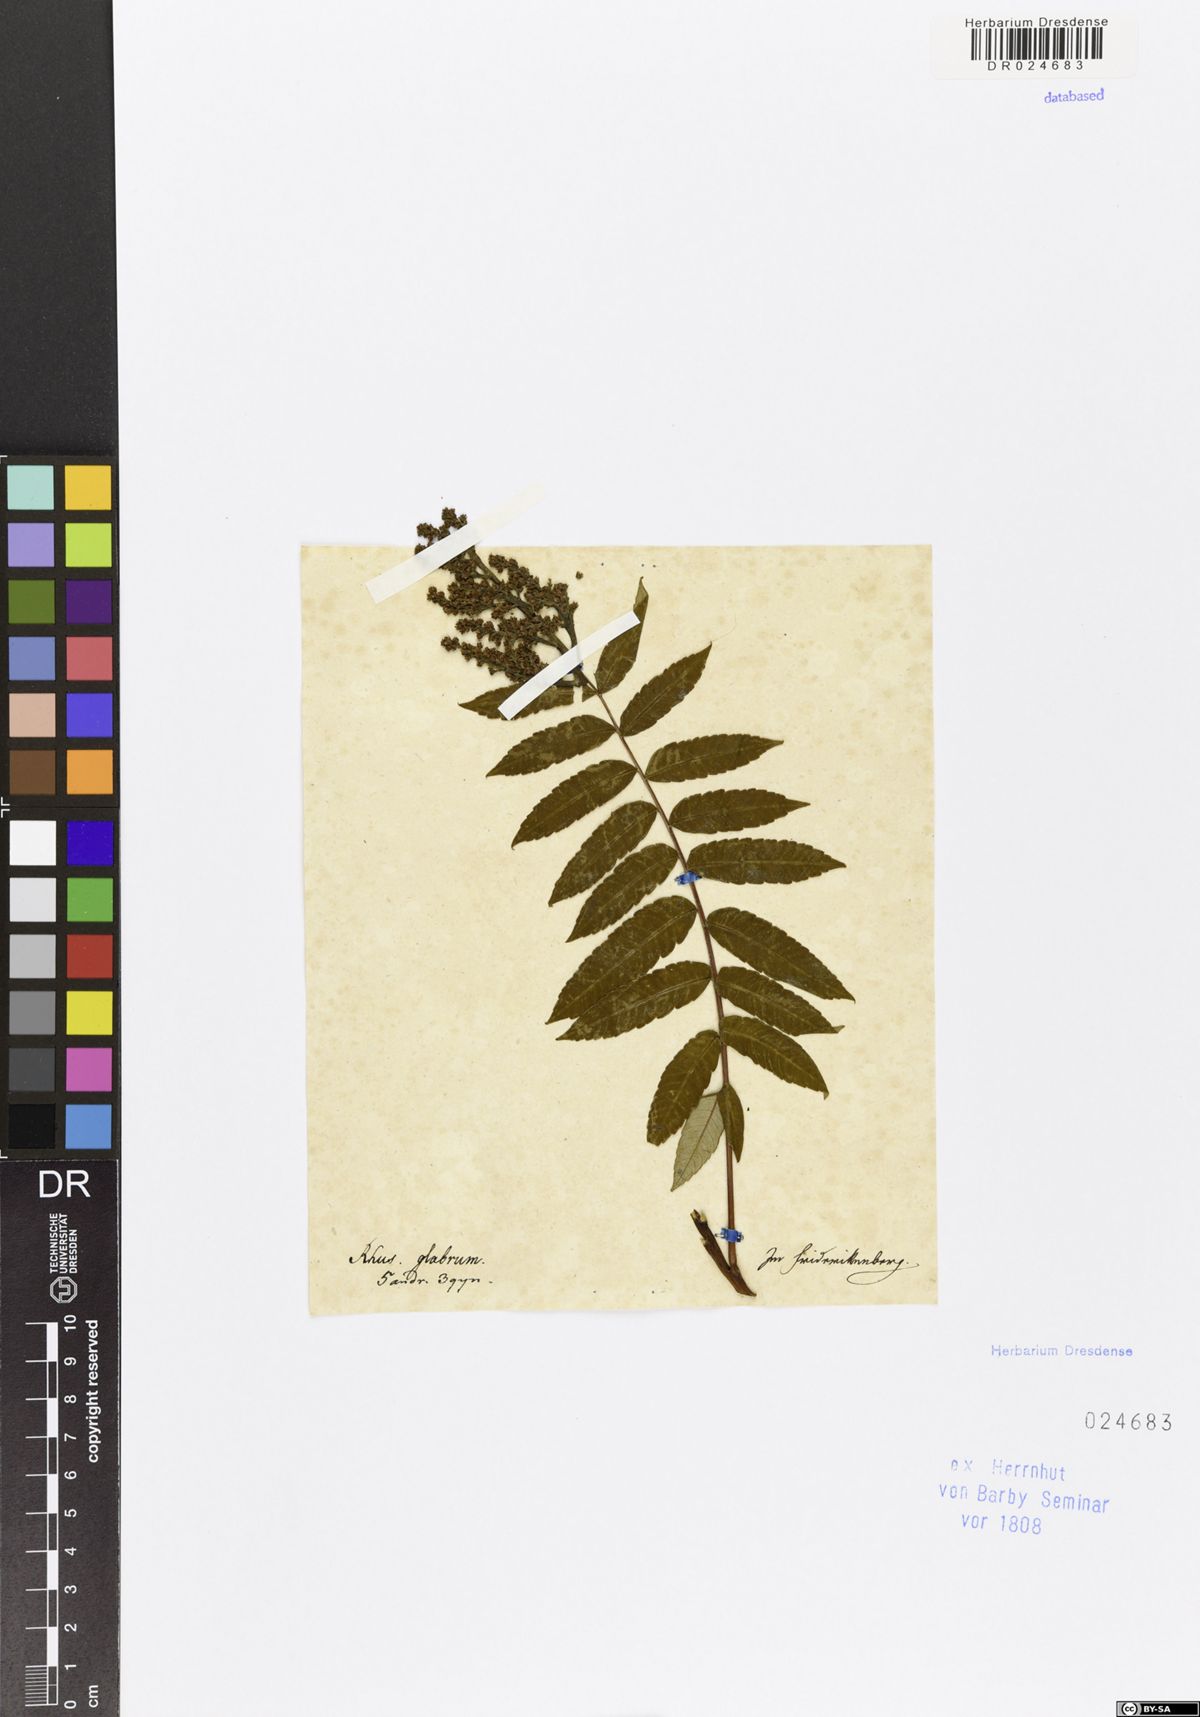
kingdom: Plantae
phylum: Tracheophyta
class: Magnoliopsida
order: Sapindales
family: Anacardiaceae
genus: Rhus
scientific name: Rhus glabra
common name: Scarlet sumac
